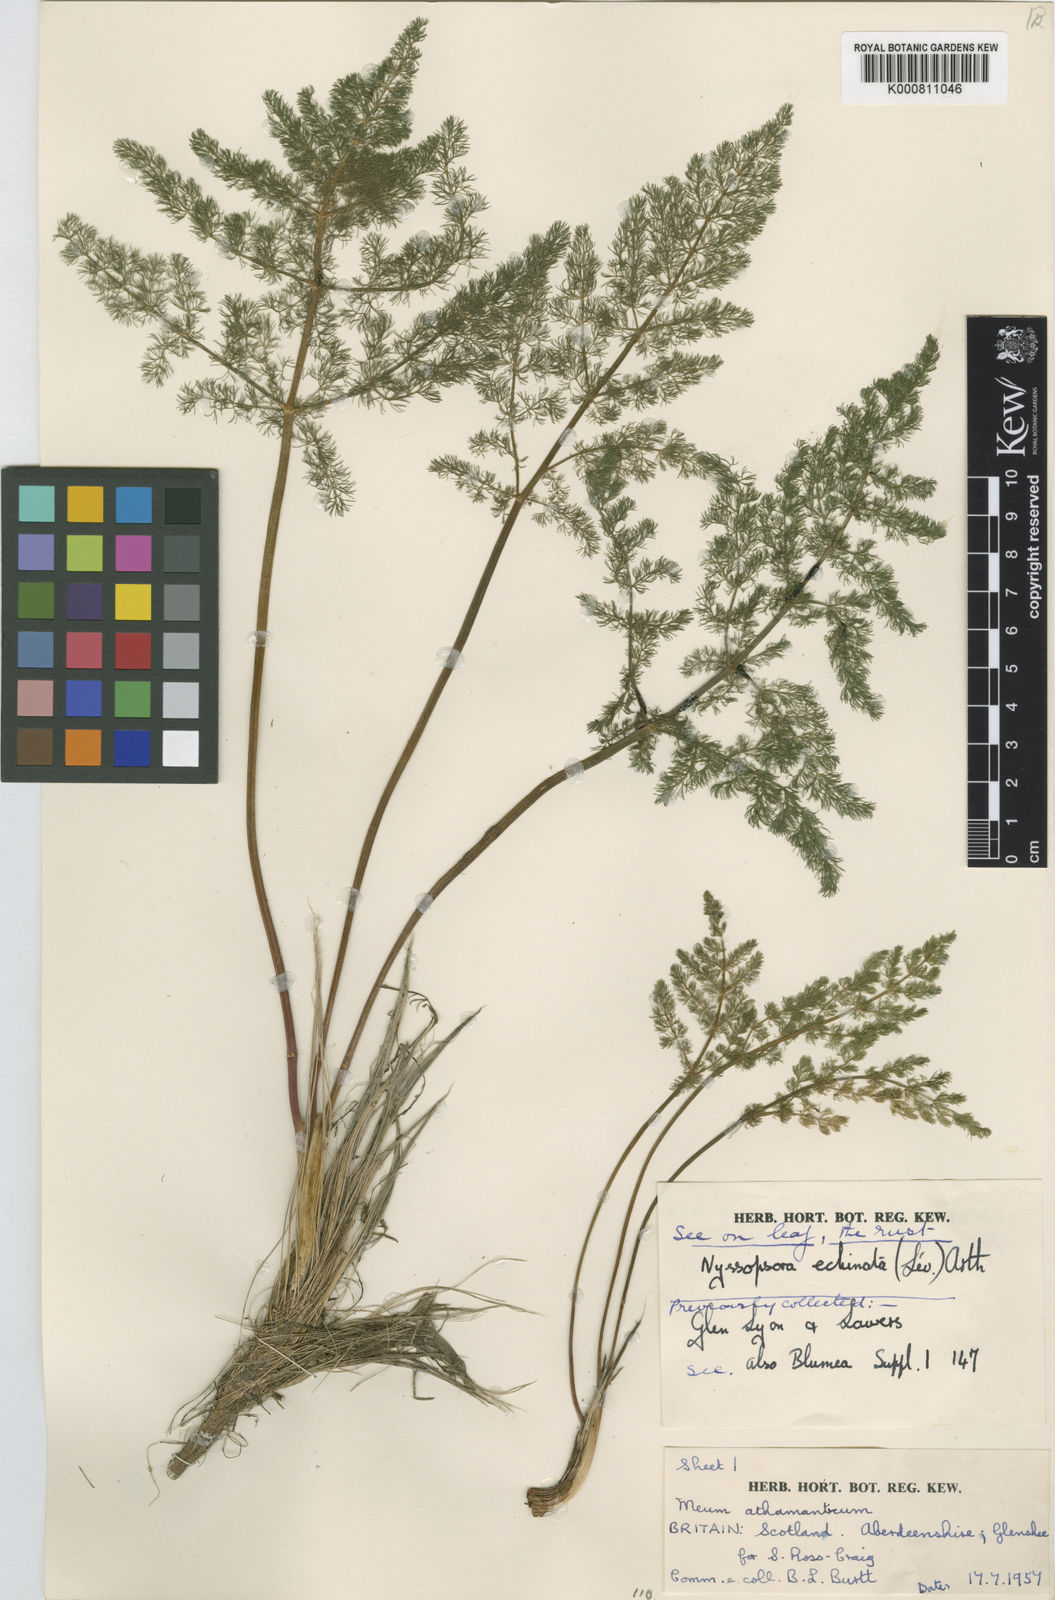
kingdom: Plantae
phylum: Tracheophyta
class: Magnoliopsida
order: Apiales
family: Apiaceae
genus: Meum
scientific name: Meum athamanticum
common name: Spignel
